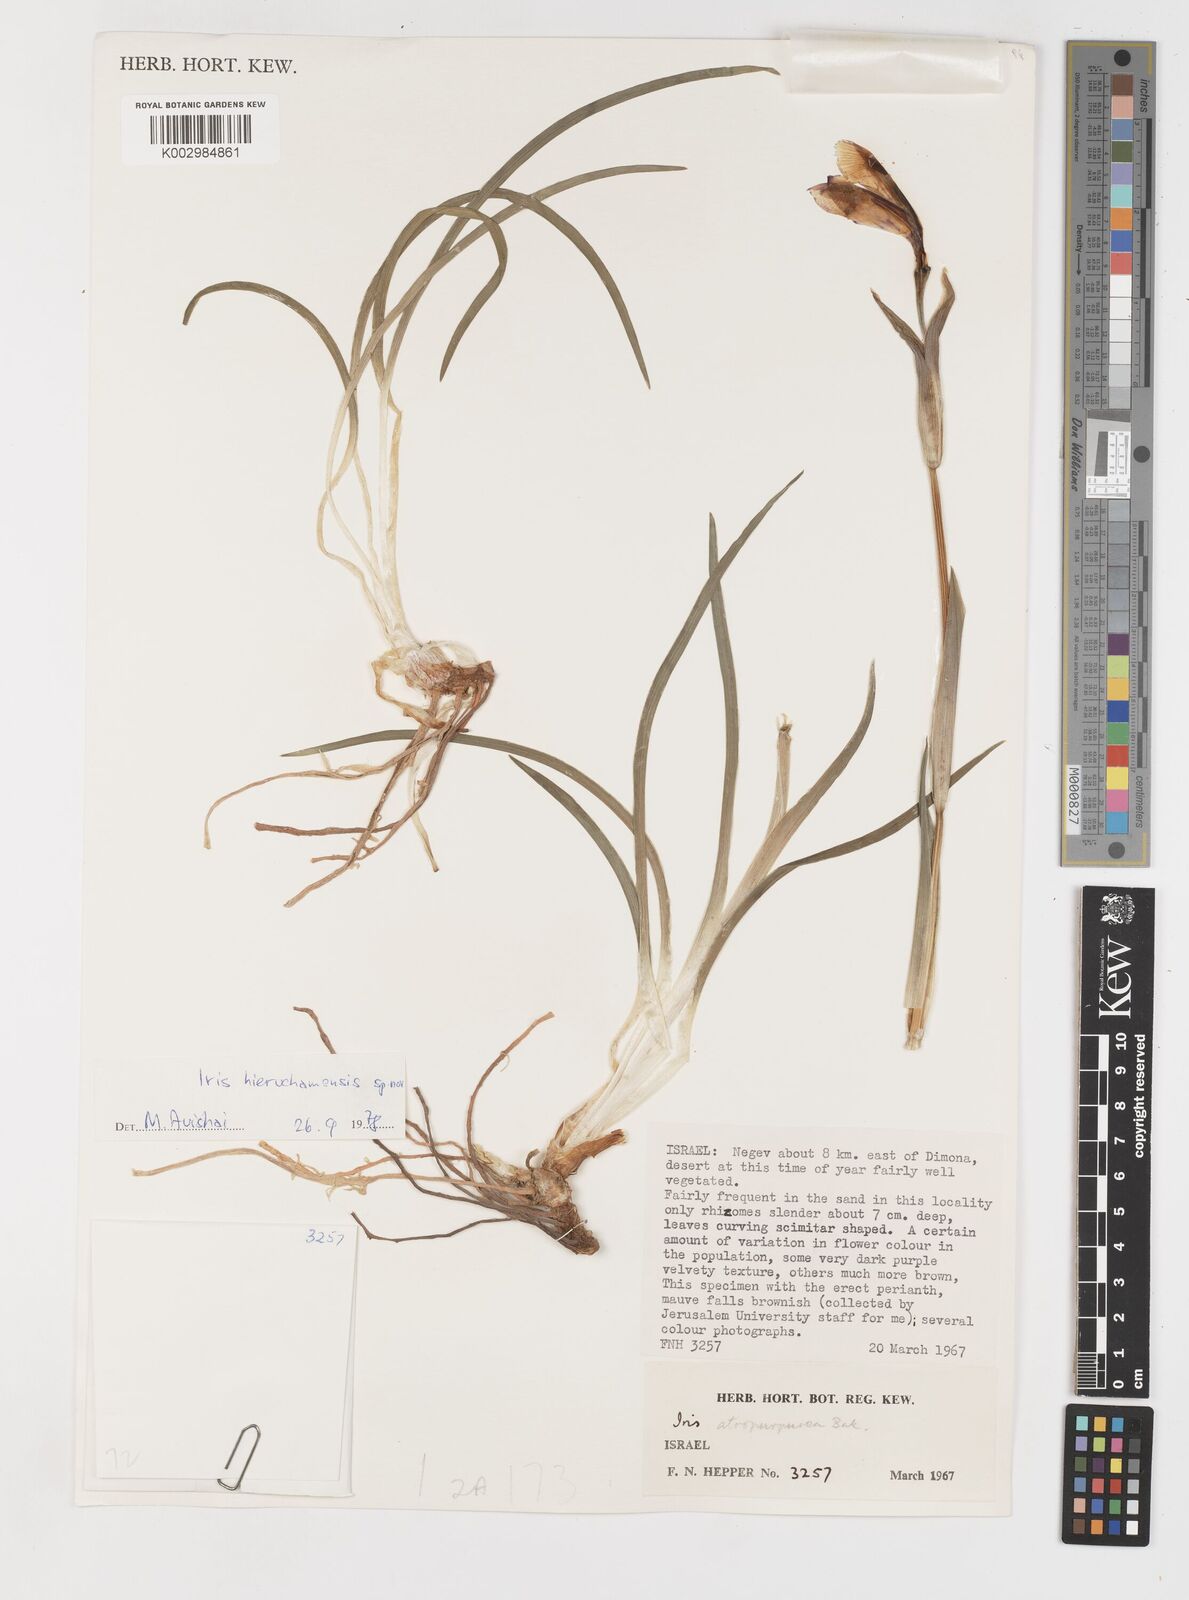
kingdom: Plantae
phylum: Tracheophyta
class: Liliopsida
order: Asparagales
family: Iridaceae
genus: Iris
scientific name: Iris atropurpurea
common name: Coastal iris
